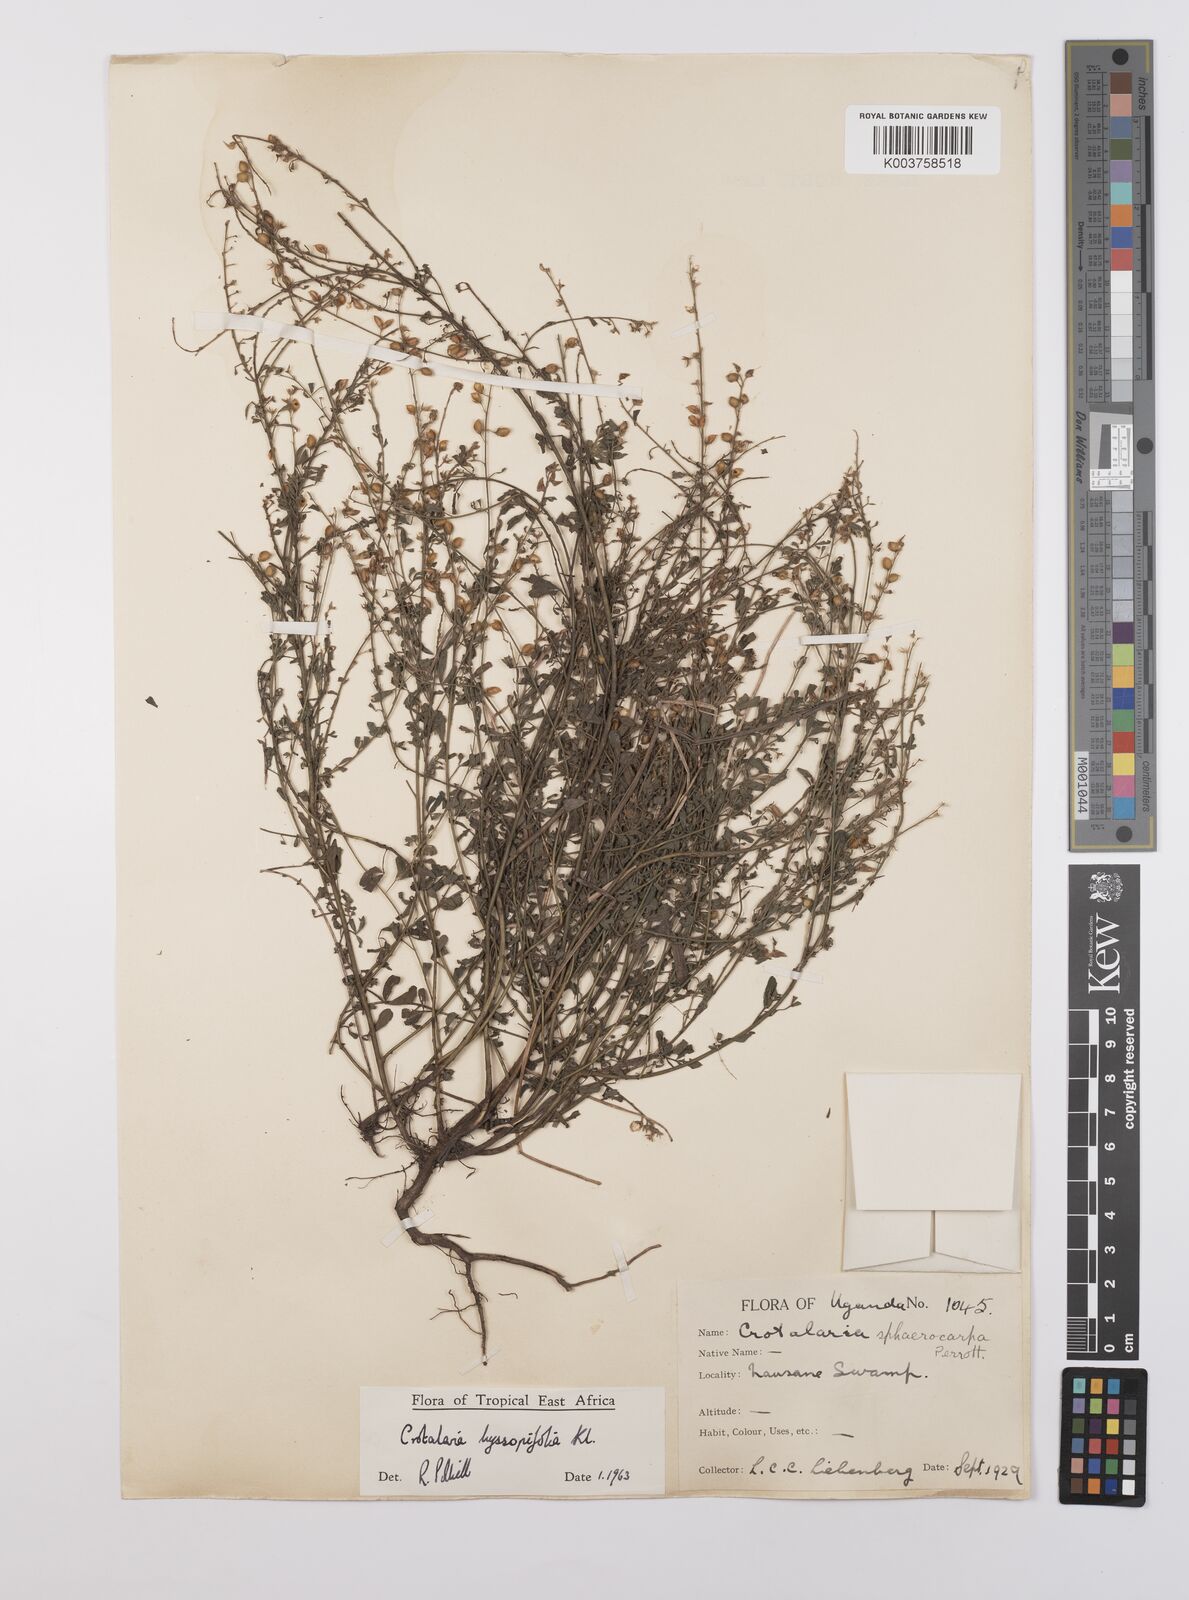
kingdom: Plantae
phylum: Tracheophyta
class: Magnoliopsida
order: Fabales
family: Fabaceae
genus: Crotalaria
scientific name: Crotalaria hyssopifolia
